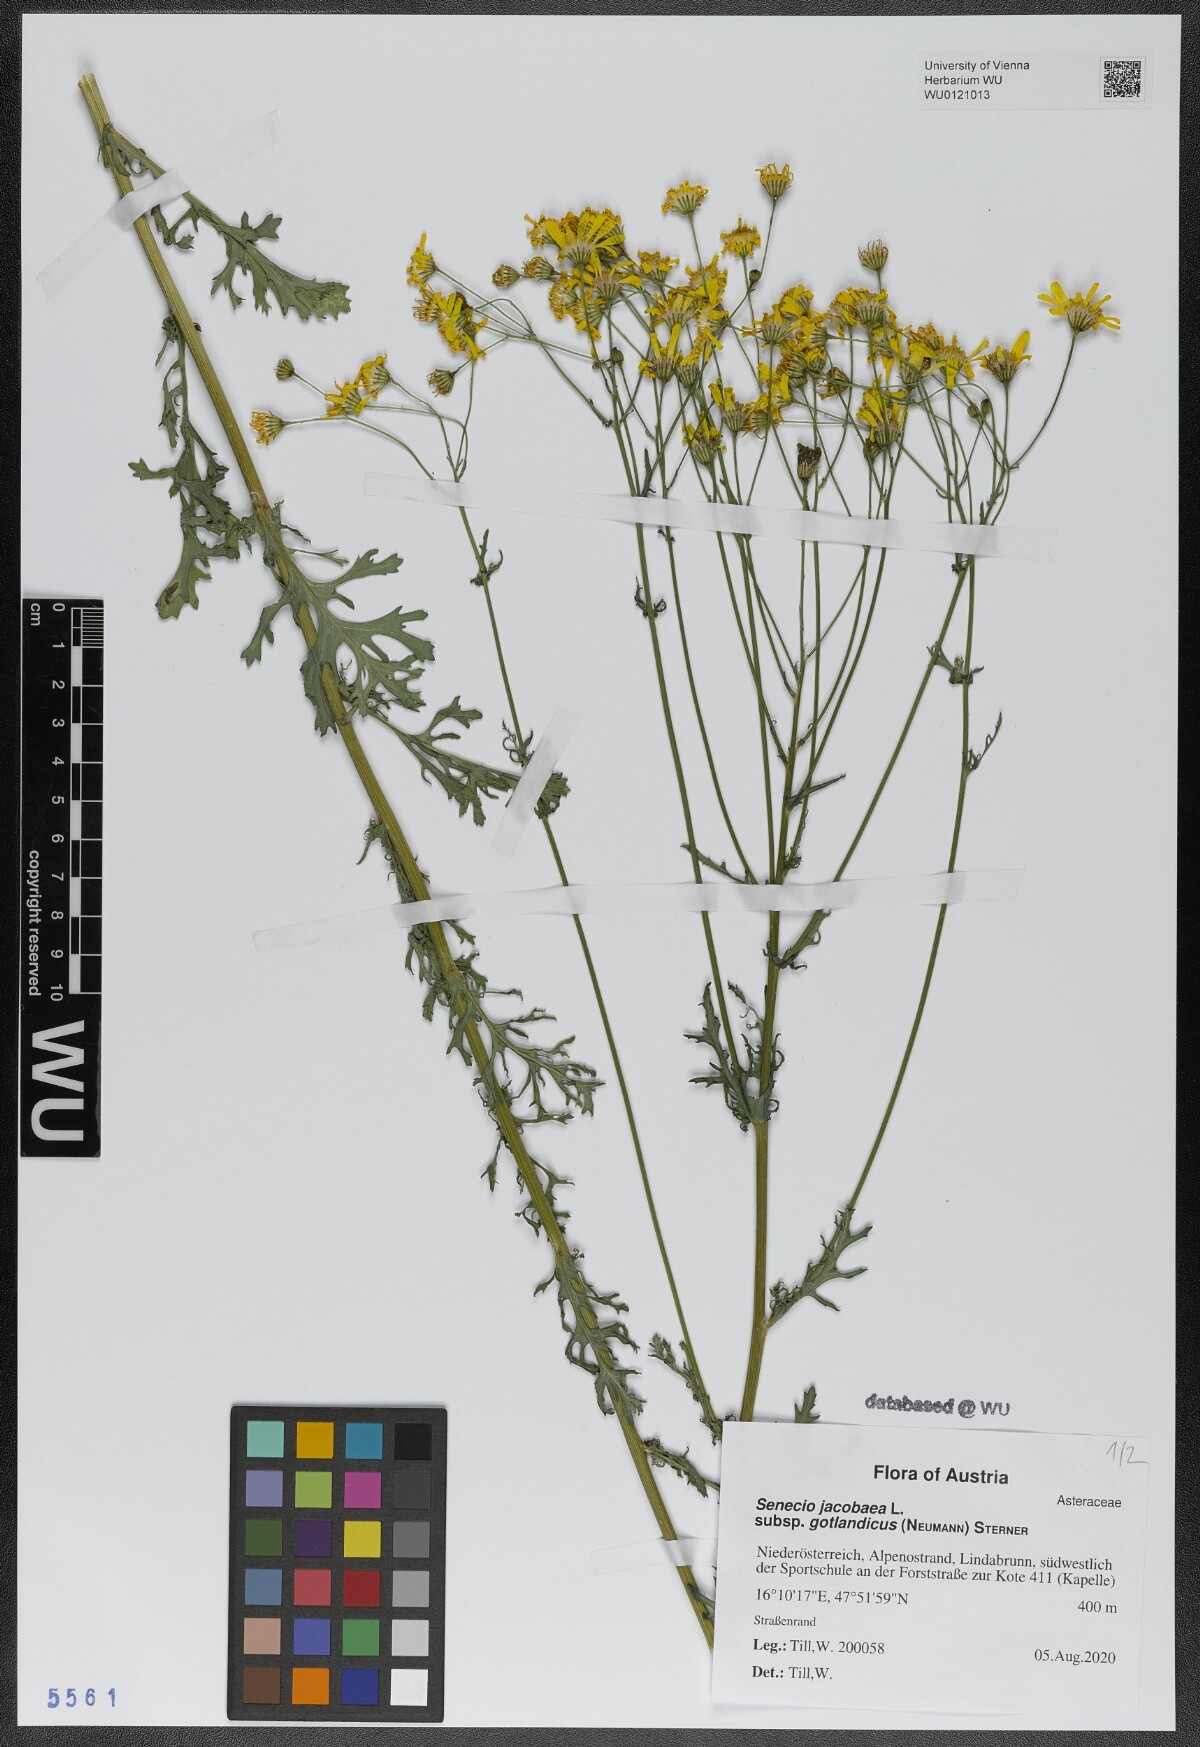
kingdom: Plantae
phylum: Tracheophyta
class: Magnoliopsida
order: Asterales
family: Asteraceae
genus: Jacobaea
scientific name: Jacobaea vulgaris
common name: Stinking willie
